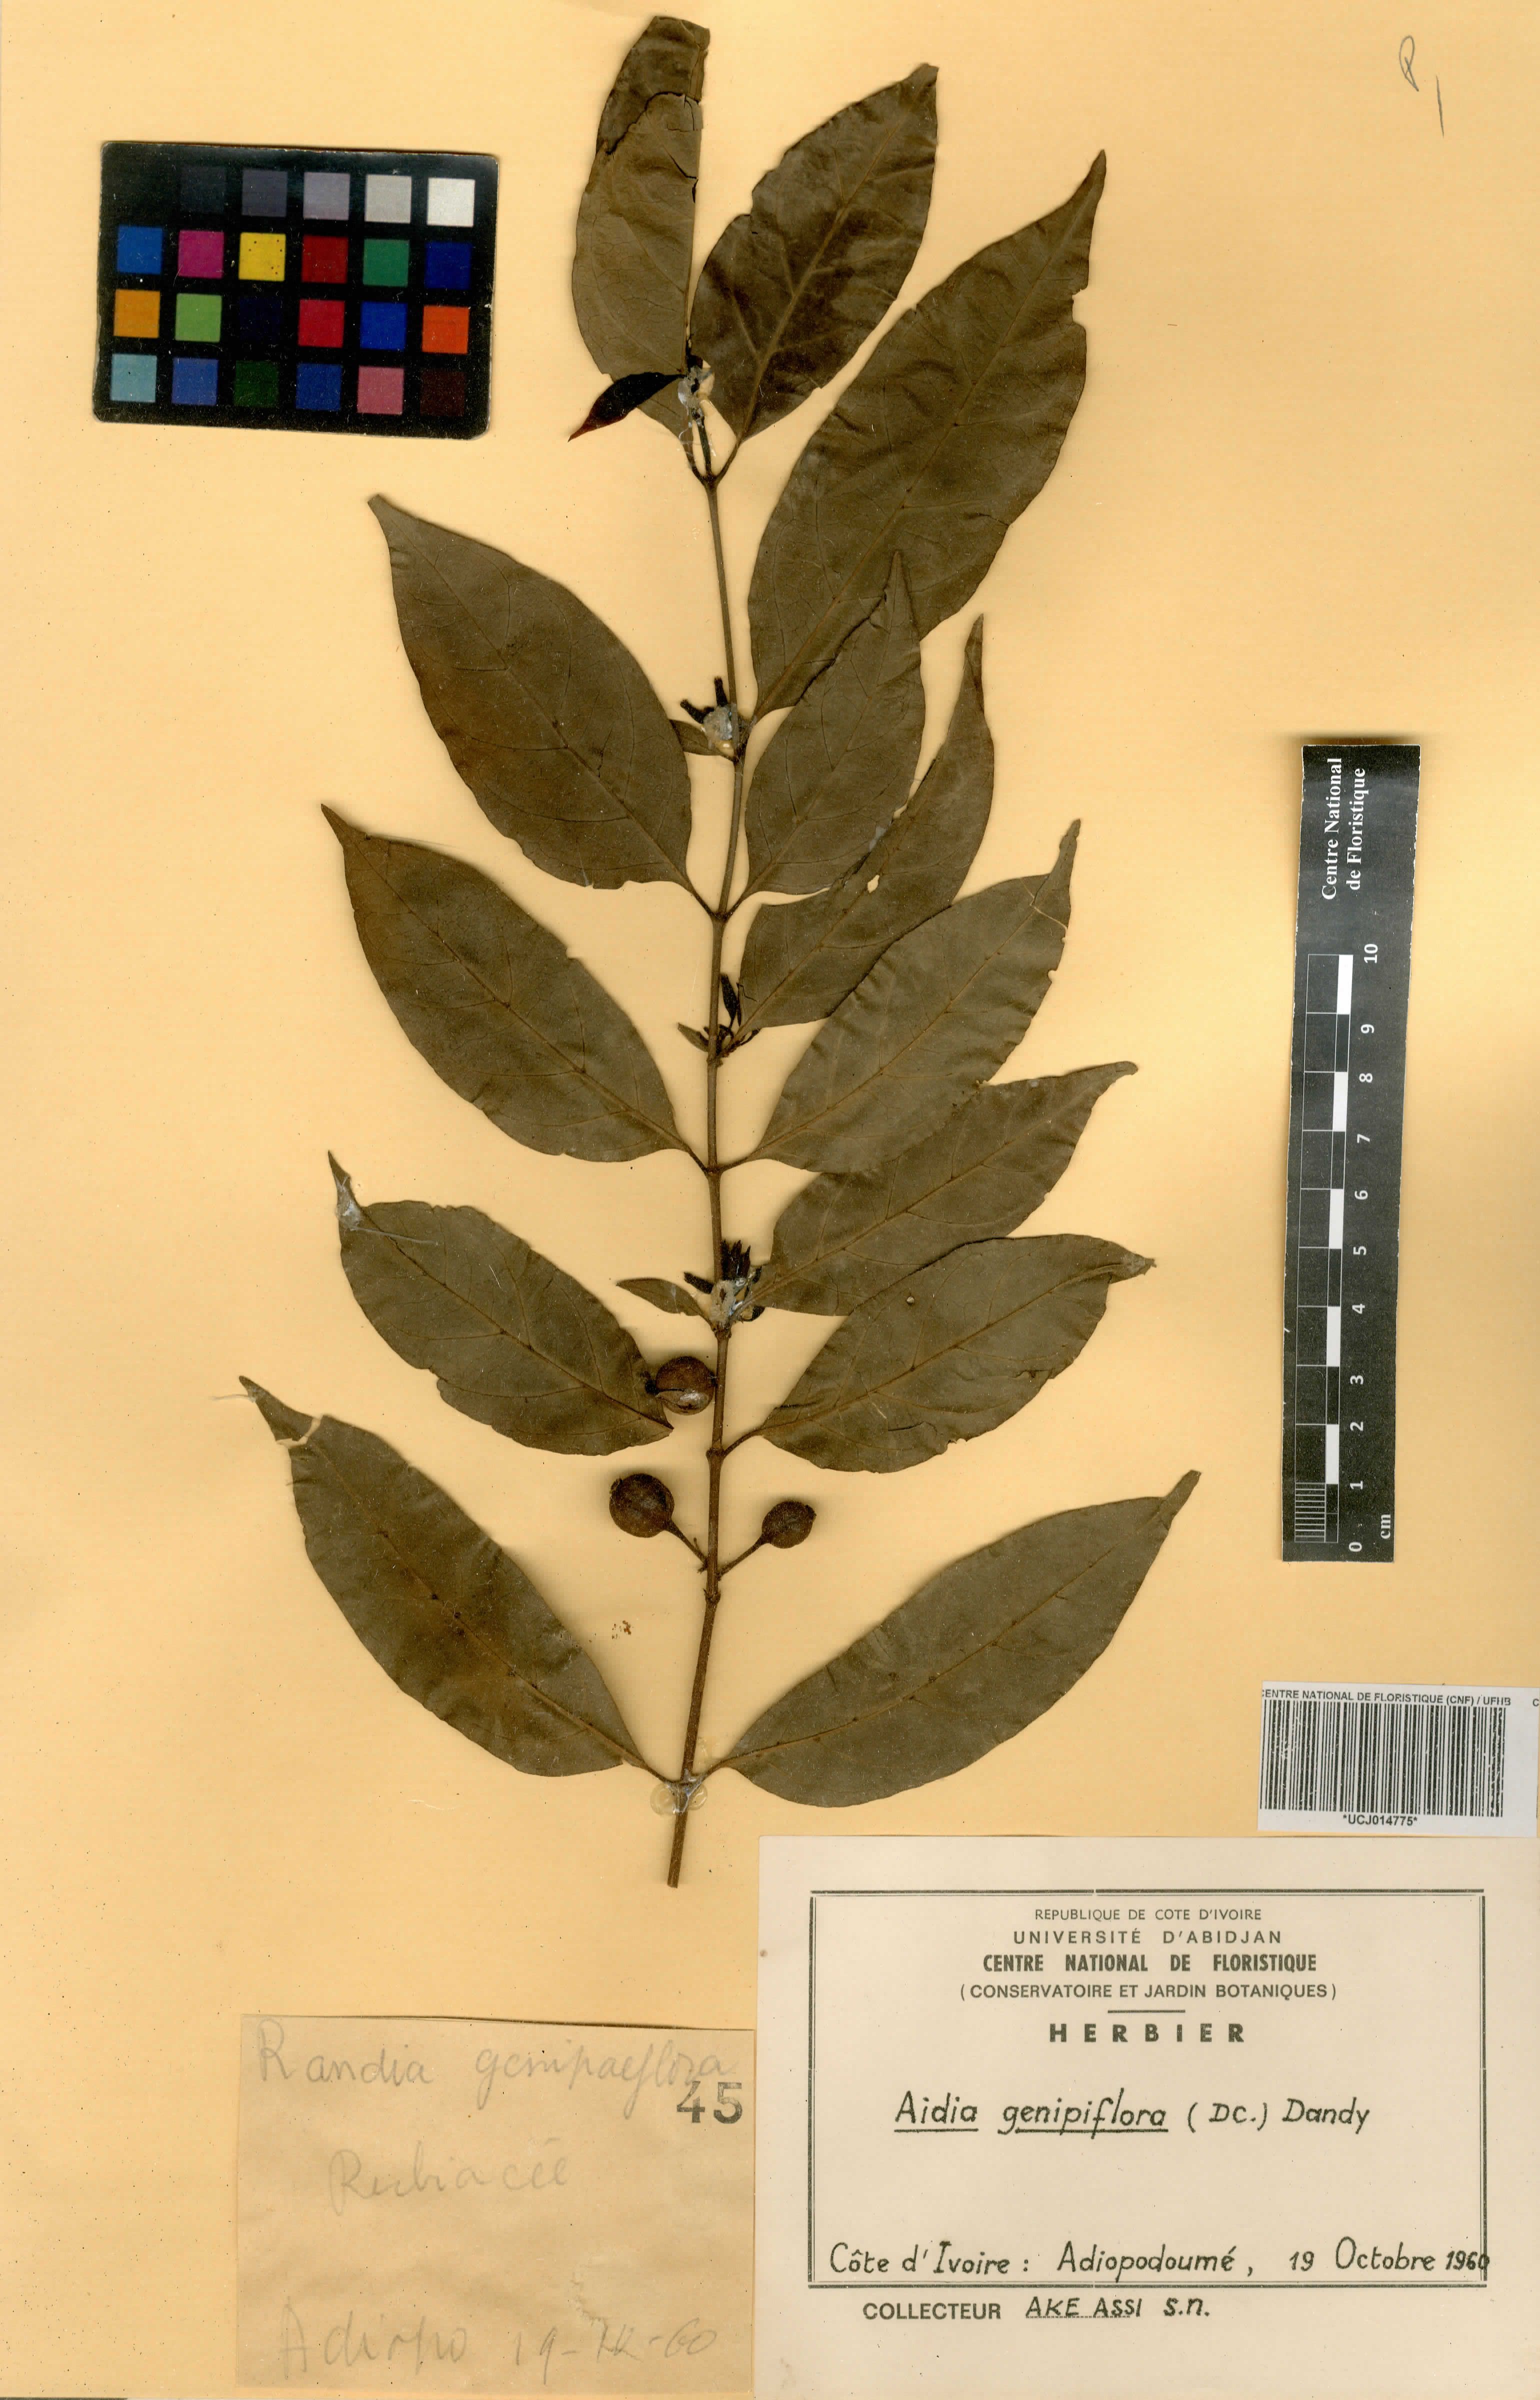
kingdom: Plantae
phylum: Tracheophyta
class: Magnoliopsida
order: Gentianales
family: Rubiaceae
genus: Aidia
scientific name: Aidia genipiflora
